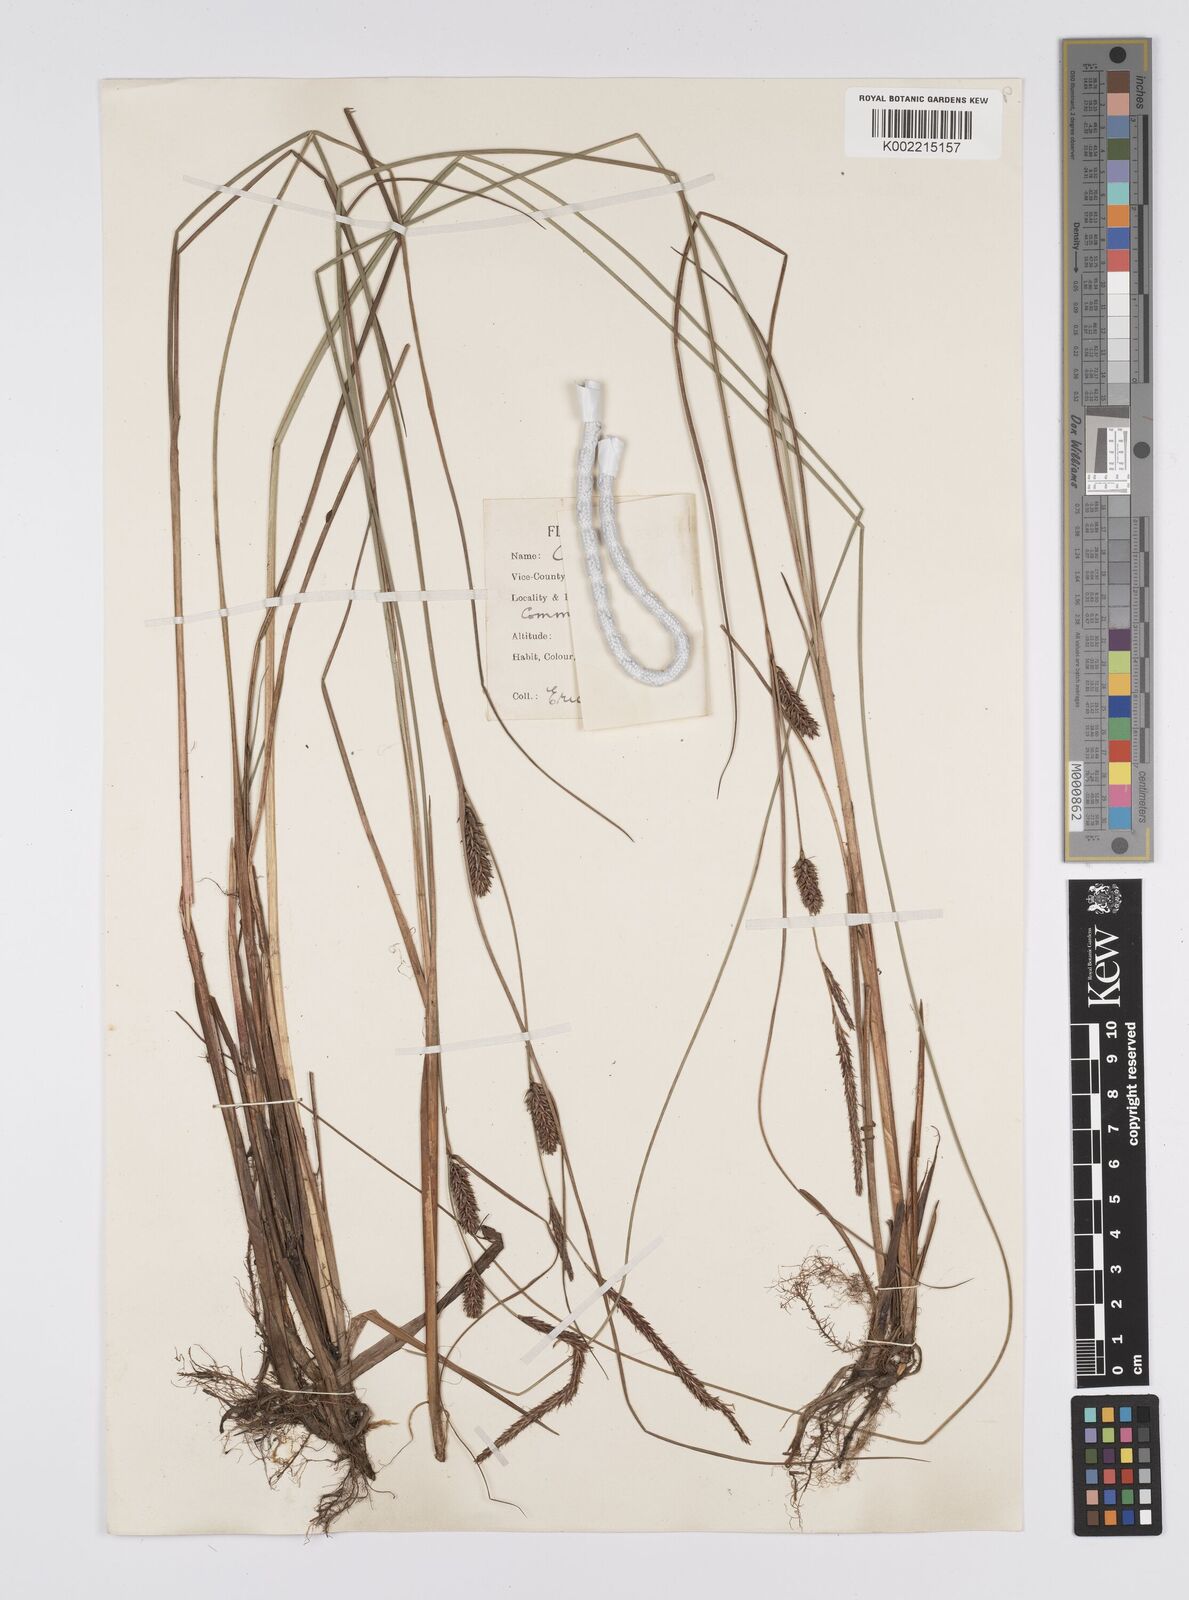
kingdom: Plantae
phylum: Tracheophyta
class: Liliopsida
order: Poales
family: Cyperaceae
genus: Carex
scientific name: Carex lasiocarpa
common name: Slender sedge
